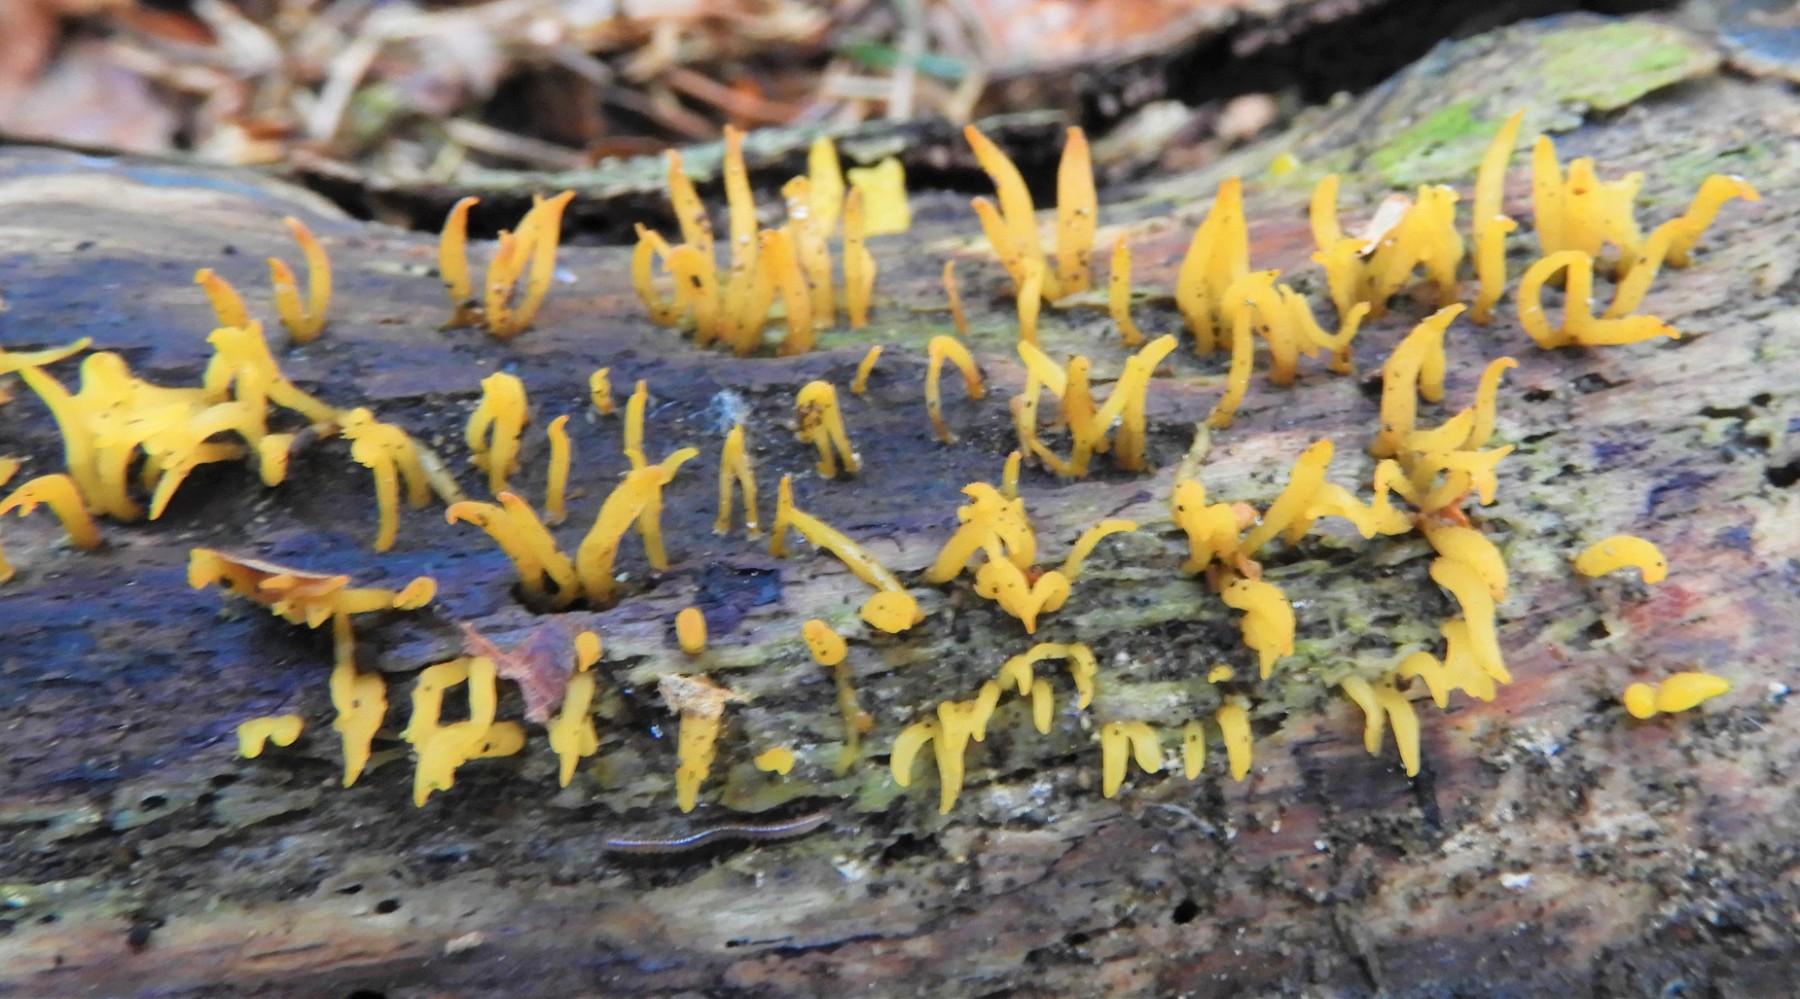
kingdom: Fungi
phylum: Basidiomycota
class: Dacrymycetes
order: Dacrymycetales
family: Dacrymycetaceae
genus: Calocera
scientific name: Calocera cornea
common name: liden guldgaffel
